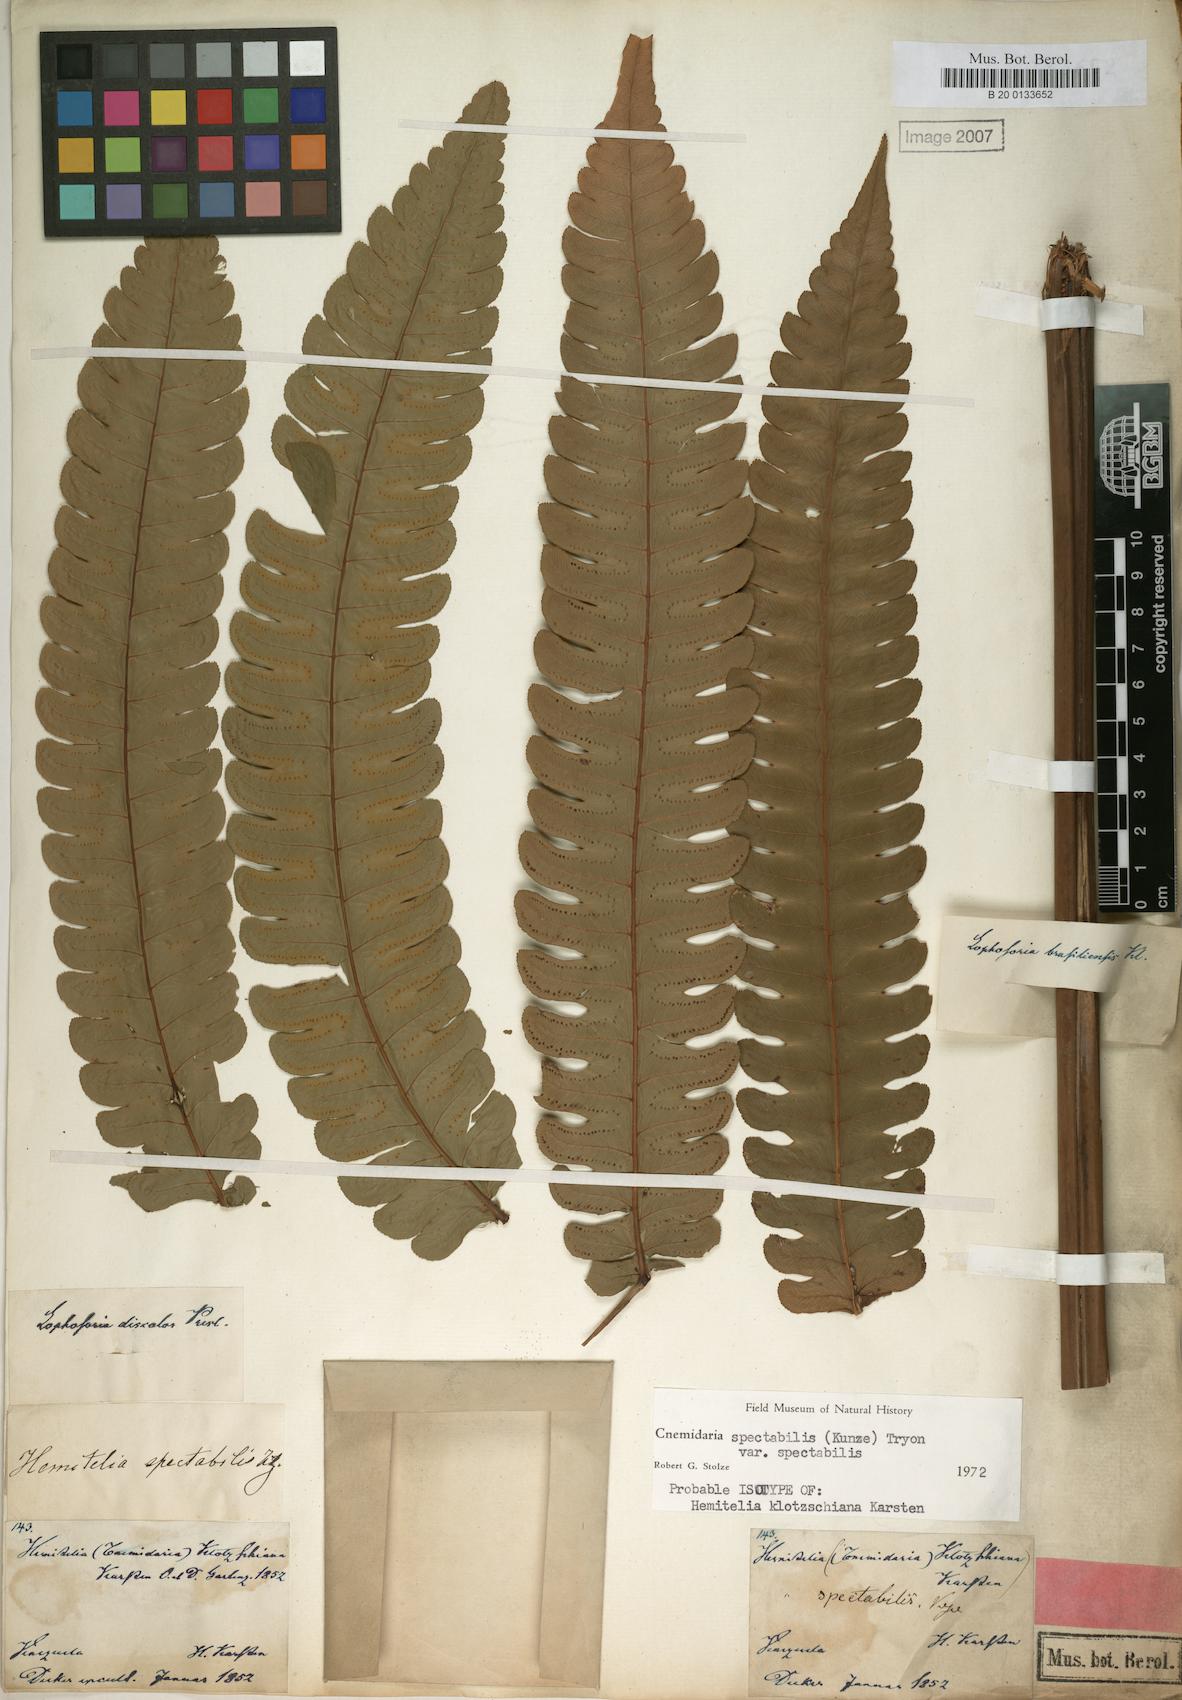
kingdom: Plantae
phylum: Tracheophyta
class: Polypodiopsida
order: Cyatheales
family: Cyatheaceae
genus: Cyathea
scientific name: Cyathea spectabilis
